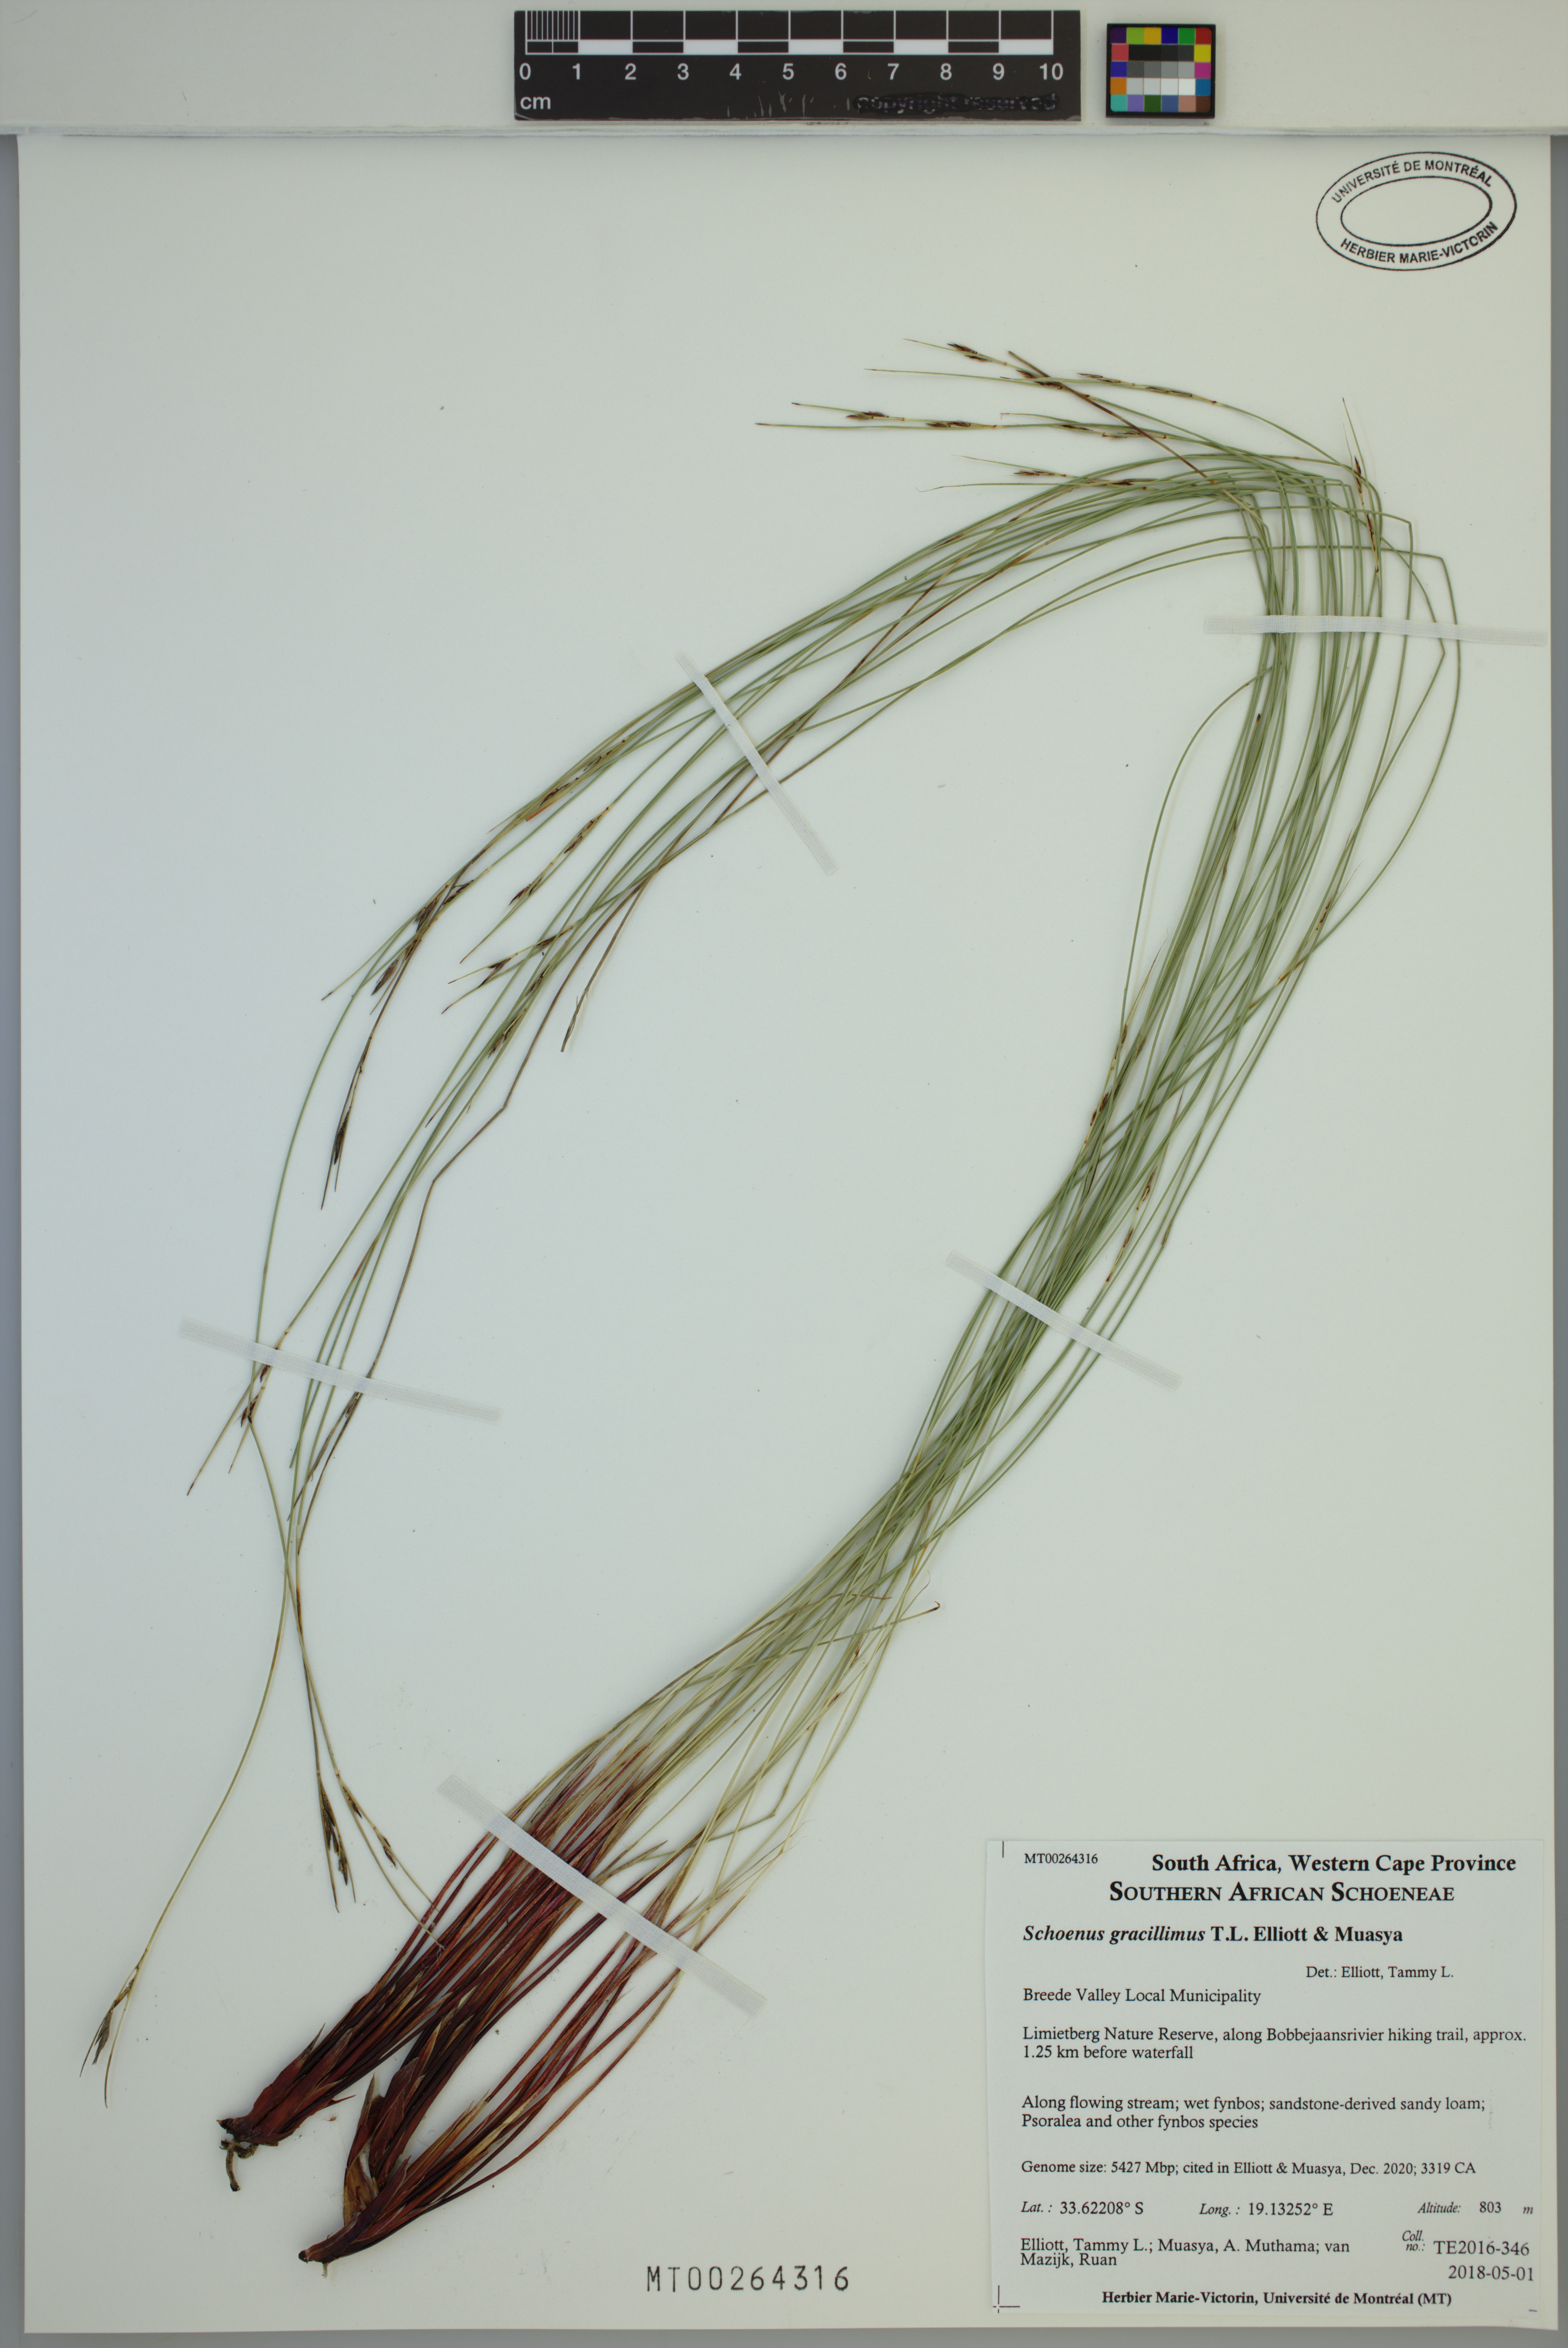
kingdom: Plantae
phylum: Tracheophyta
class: Liliopsida
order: Poales
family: Cyperaceae
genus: Schoenus
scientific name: Schoenus gracillimus
